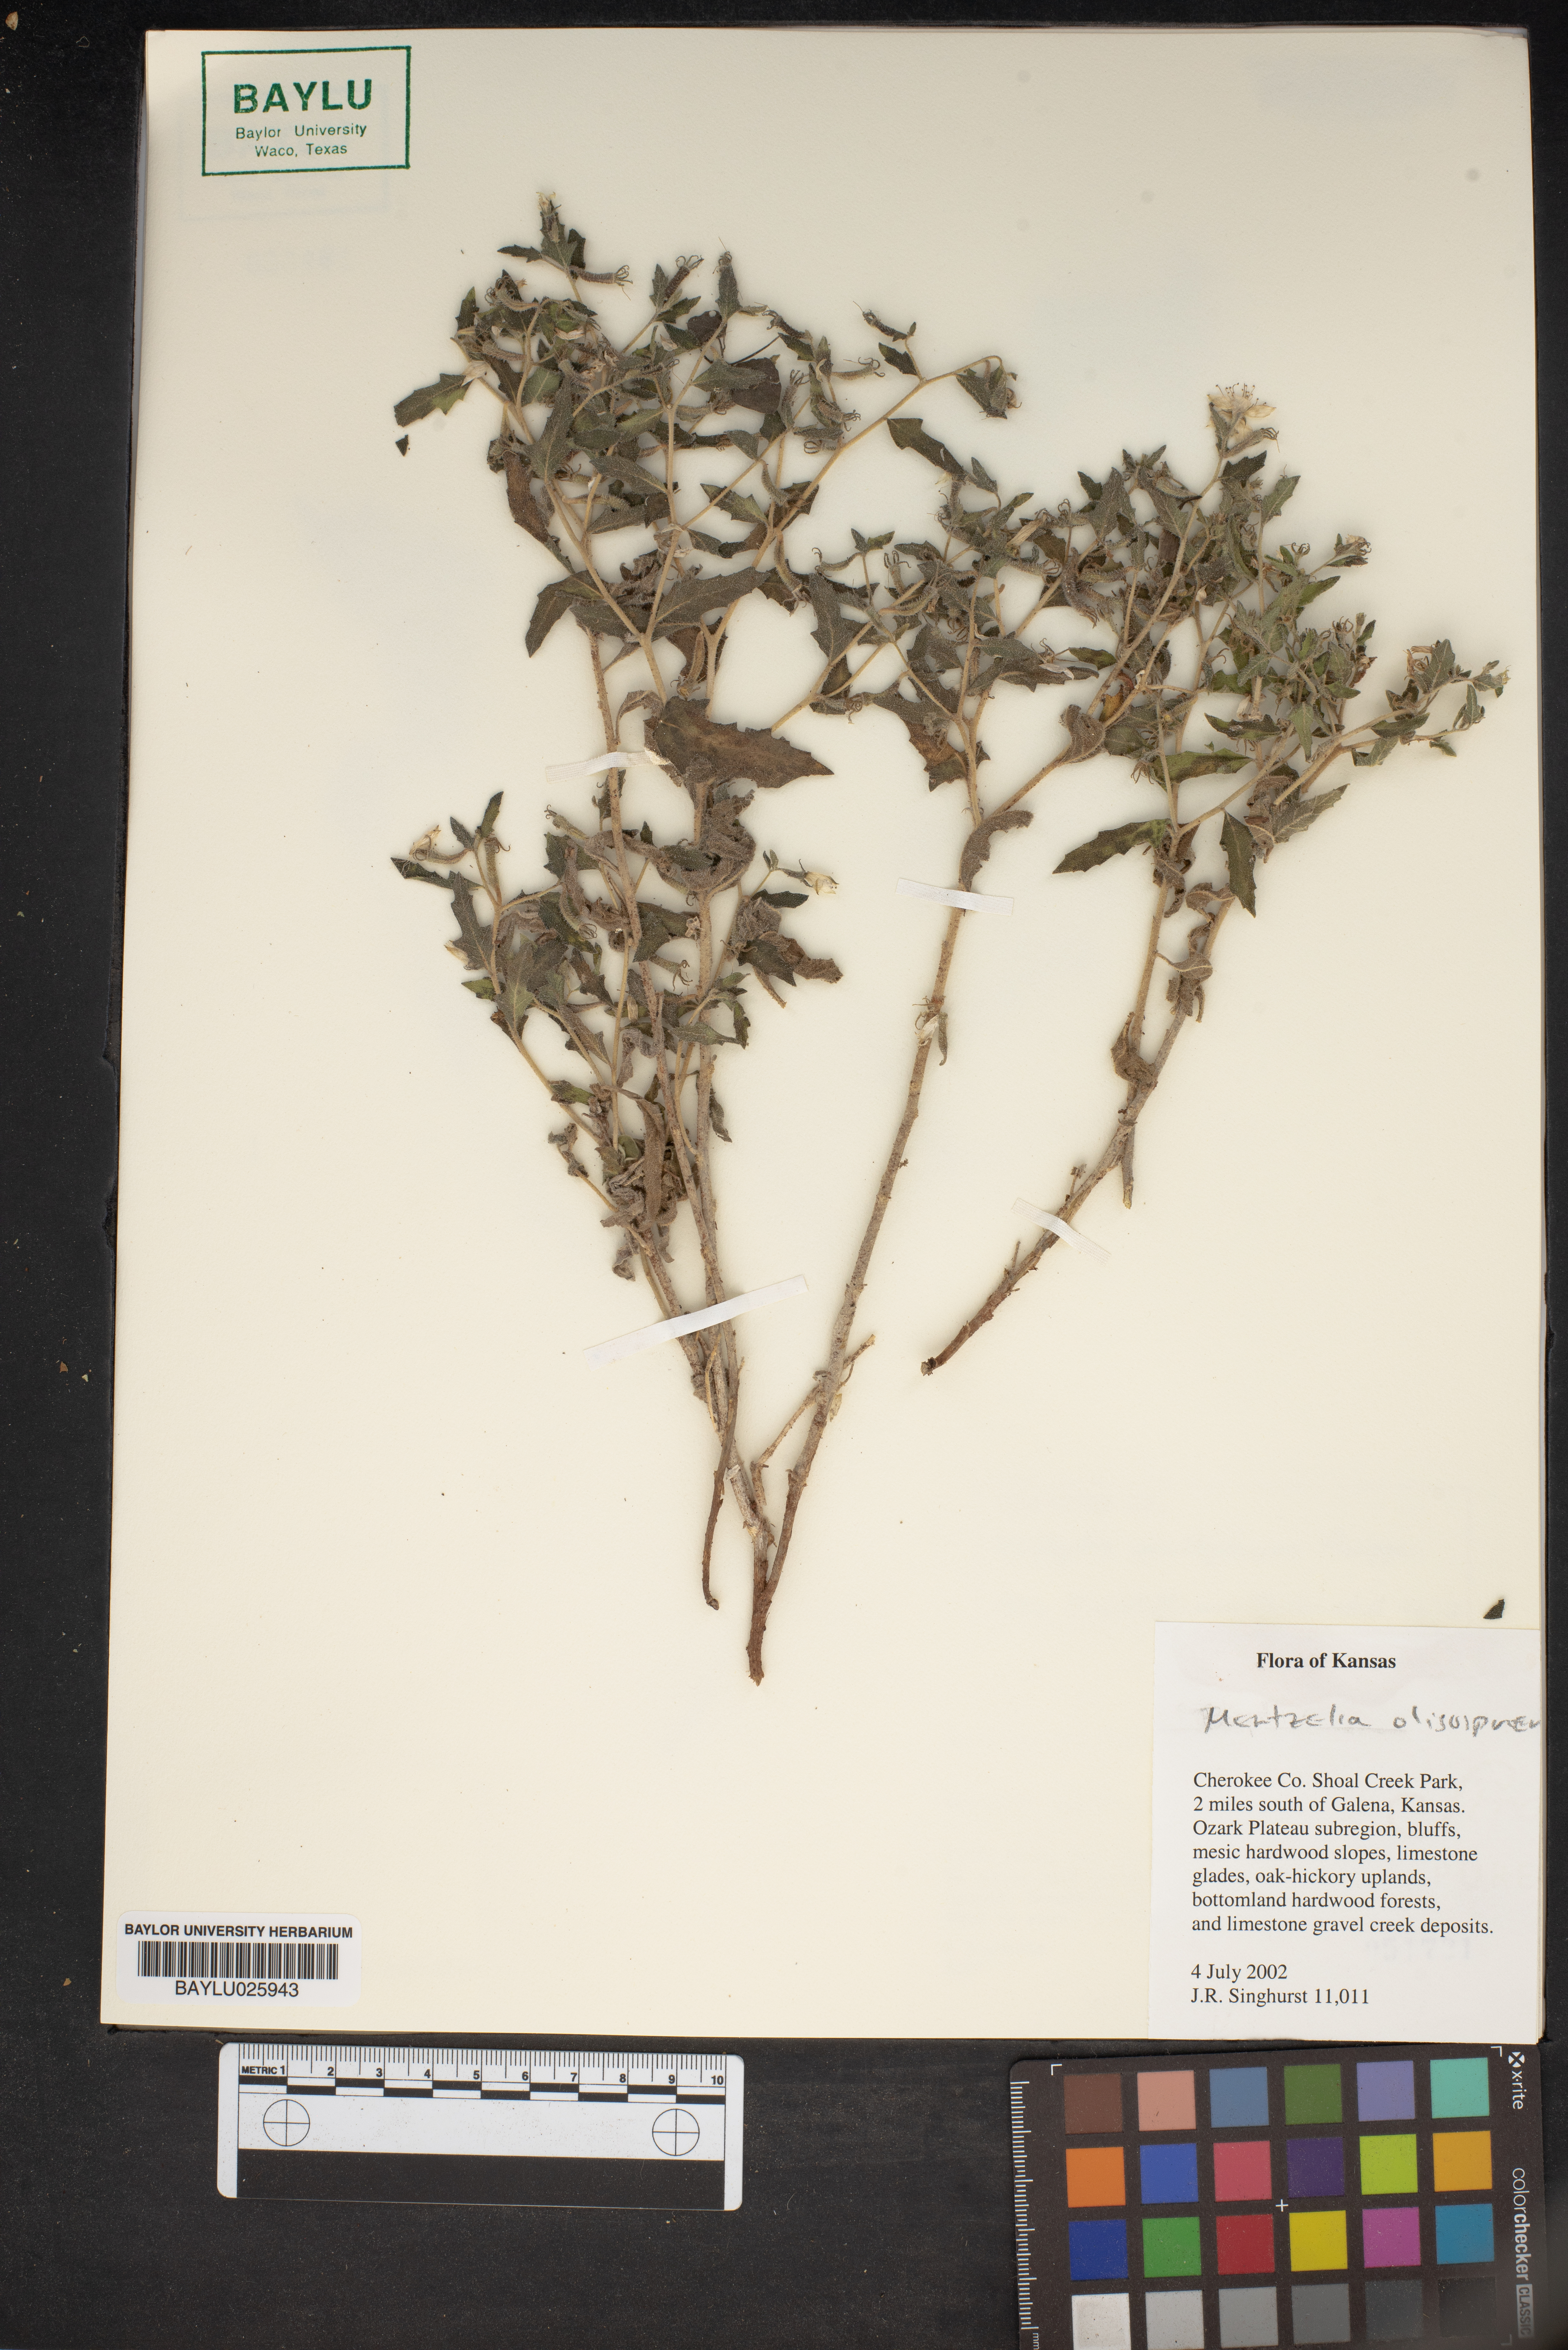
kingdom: Plantae
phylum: Tracheophyta
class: Magnoliopsida
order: Cornales
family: Loasaceae
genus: Mentzelia
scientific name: Mentzelia oligosperma
